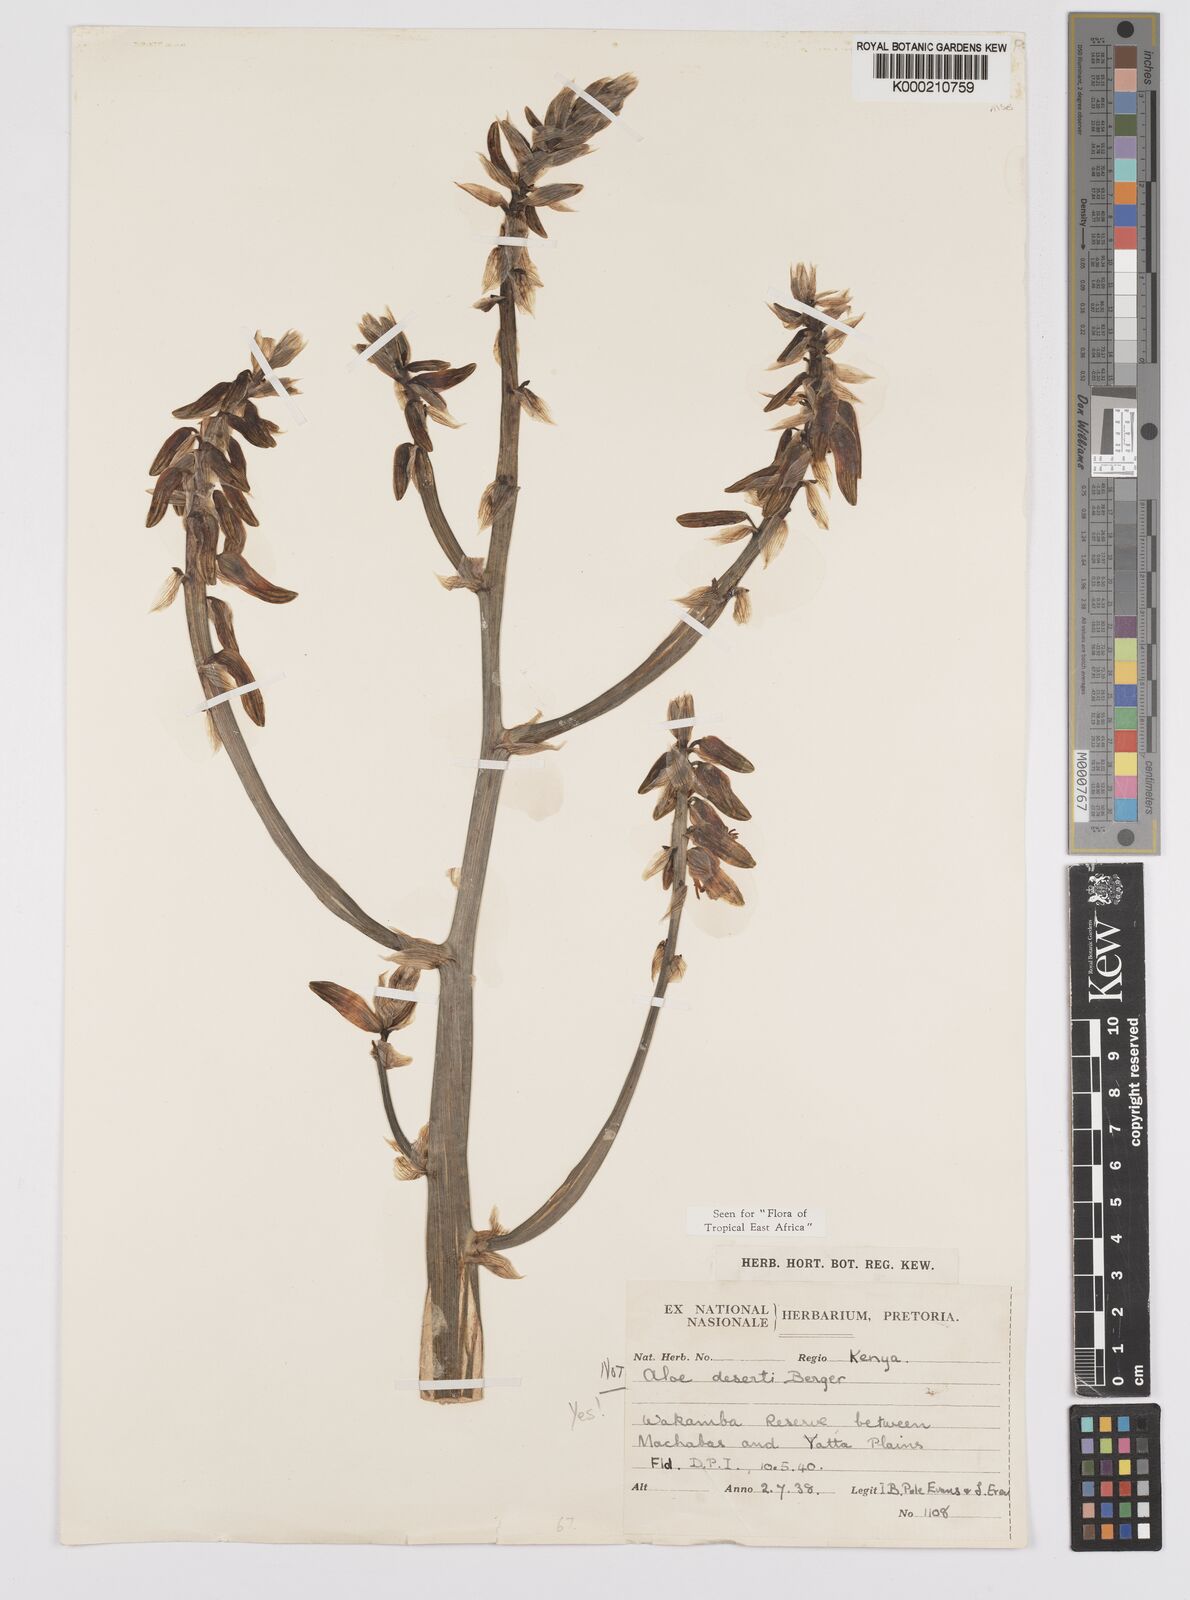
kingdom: Plantae
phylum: Tracheophyta
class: Liliopsida
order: Asparagales
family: Asphodelaceae
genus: Aloe
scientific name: Aloe deserti
